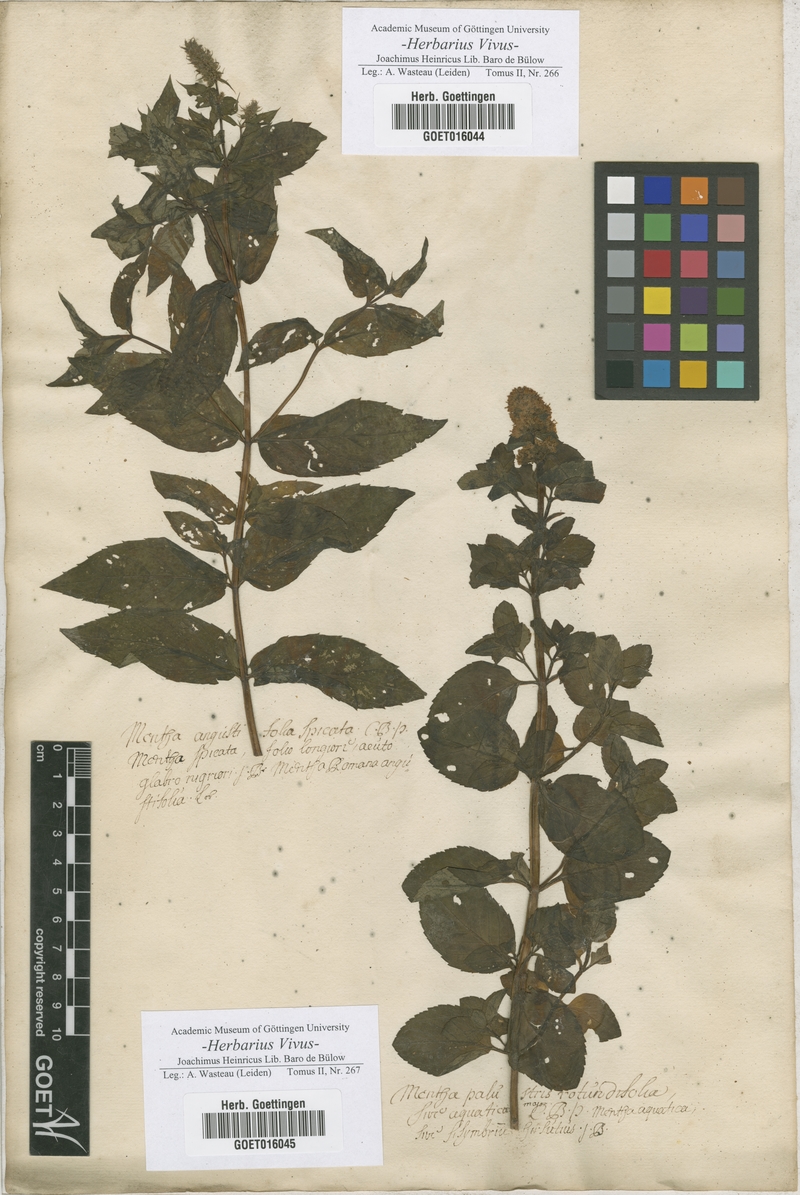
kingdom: Plantae
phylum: Tracheophyta
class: Magnoliopsida
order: Lamiales
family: Lamiaceae
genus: Mentha
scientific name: Mentha spicata
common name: Spearmint
